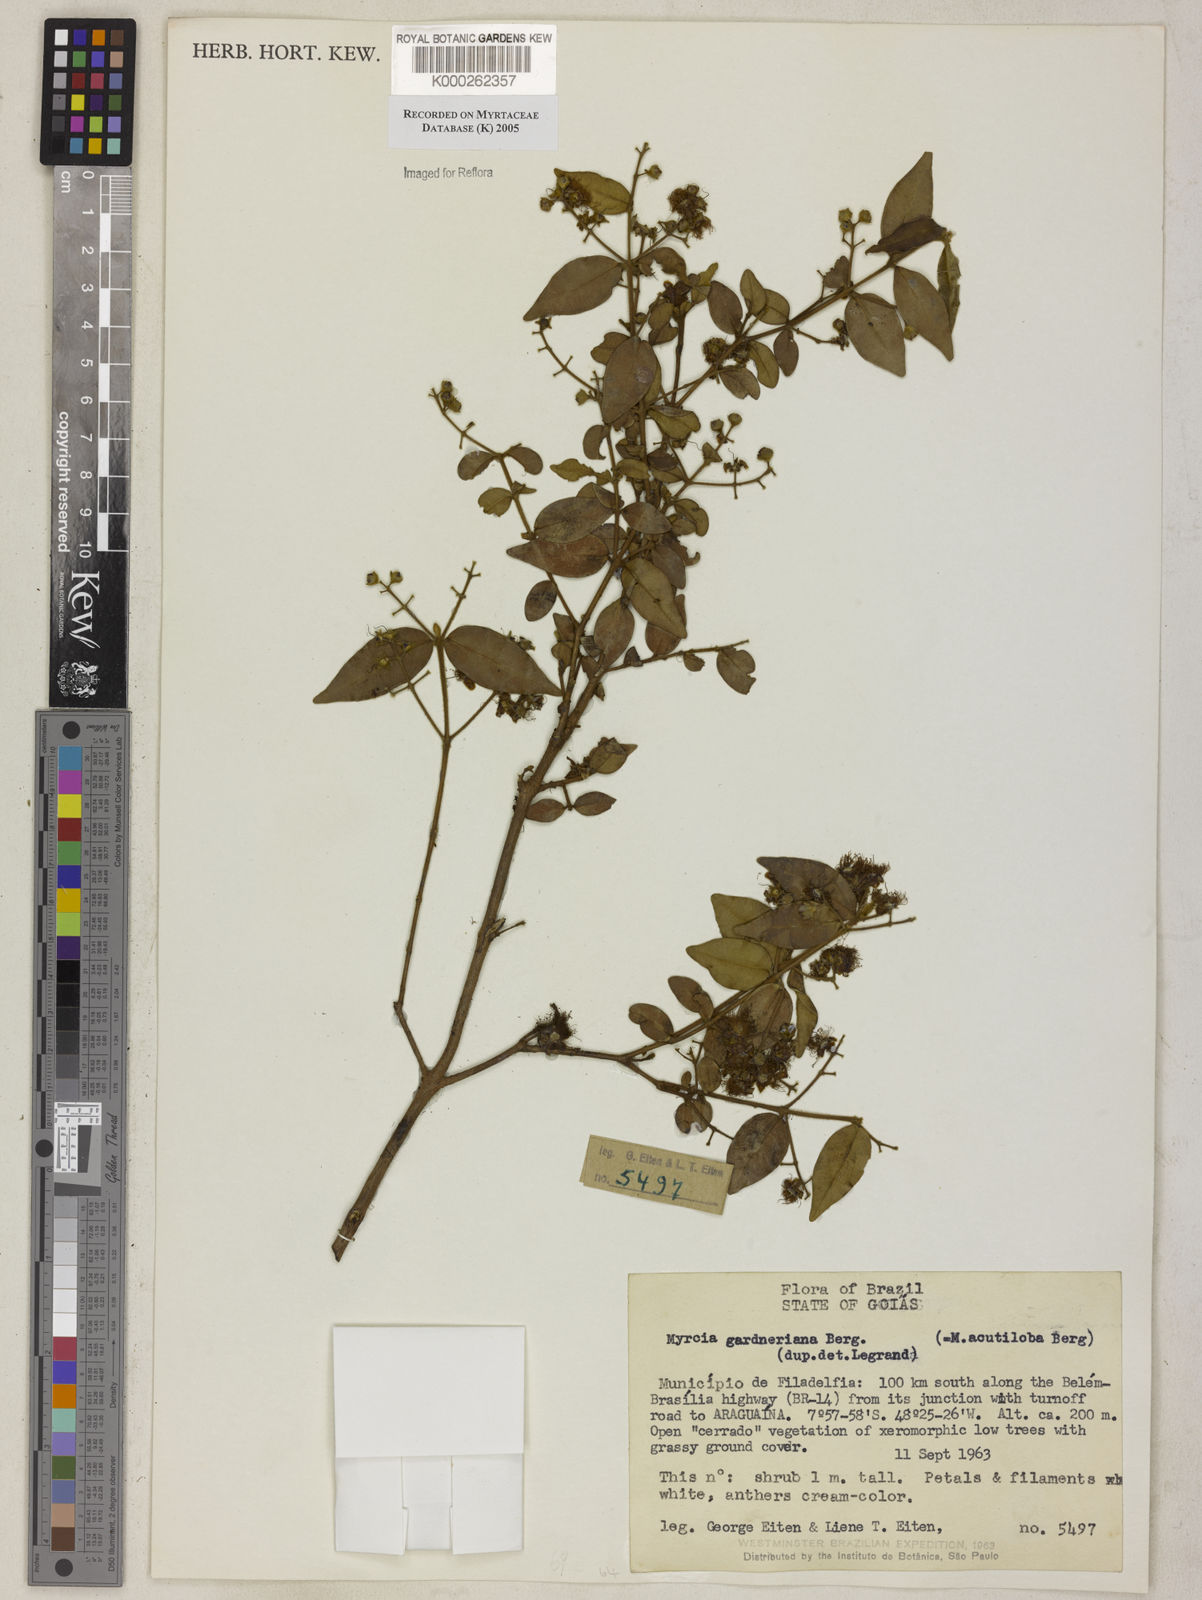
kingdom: Plantae
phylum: Tracheophyta
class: Magnoliopsida
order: Myrtales
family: Myrtaceae
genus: Myrcia
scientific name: Myrcia splendens
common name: Surinam cherry
